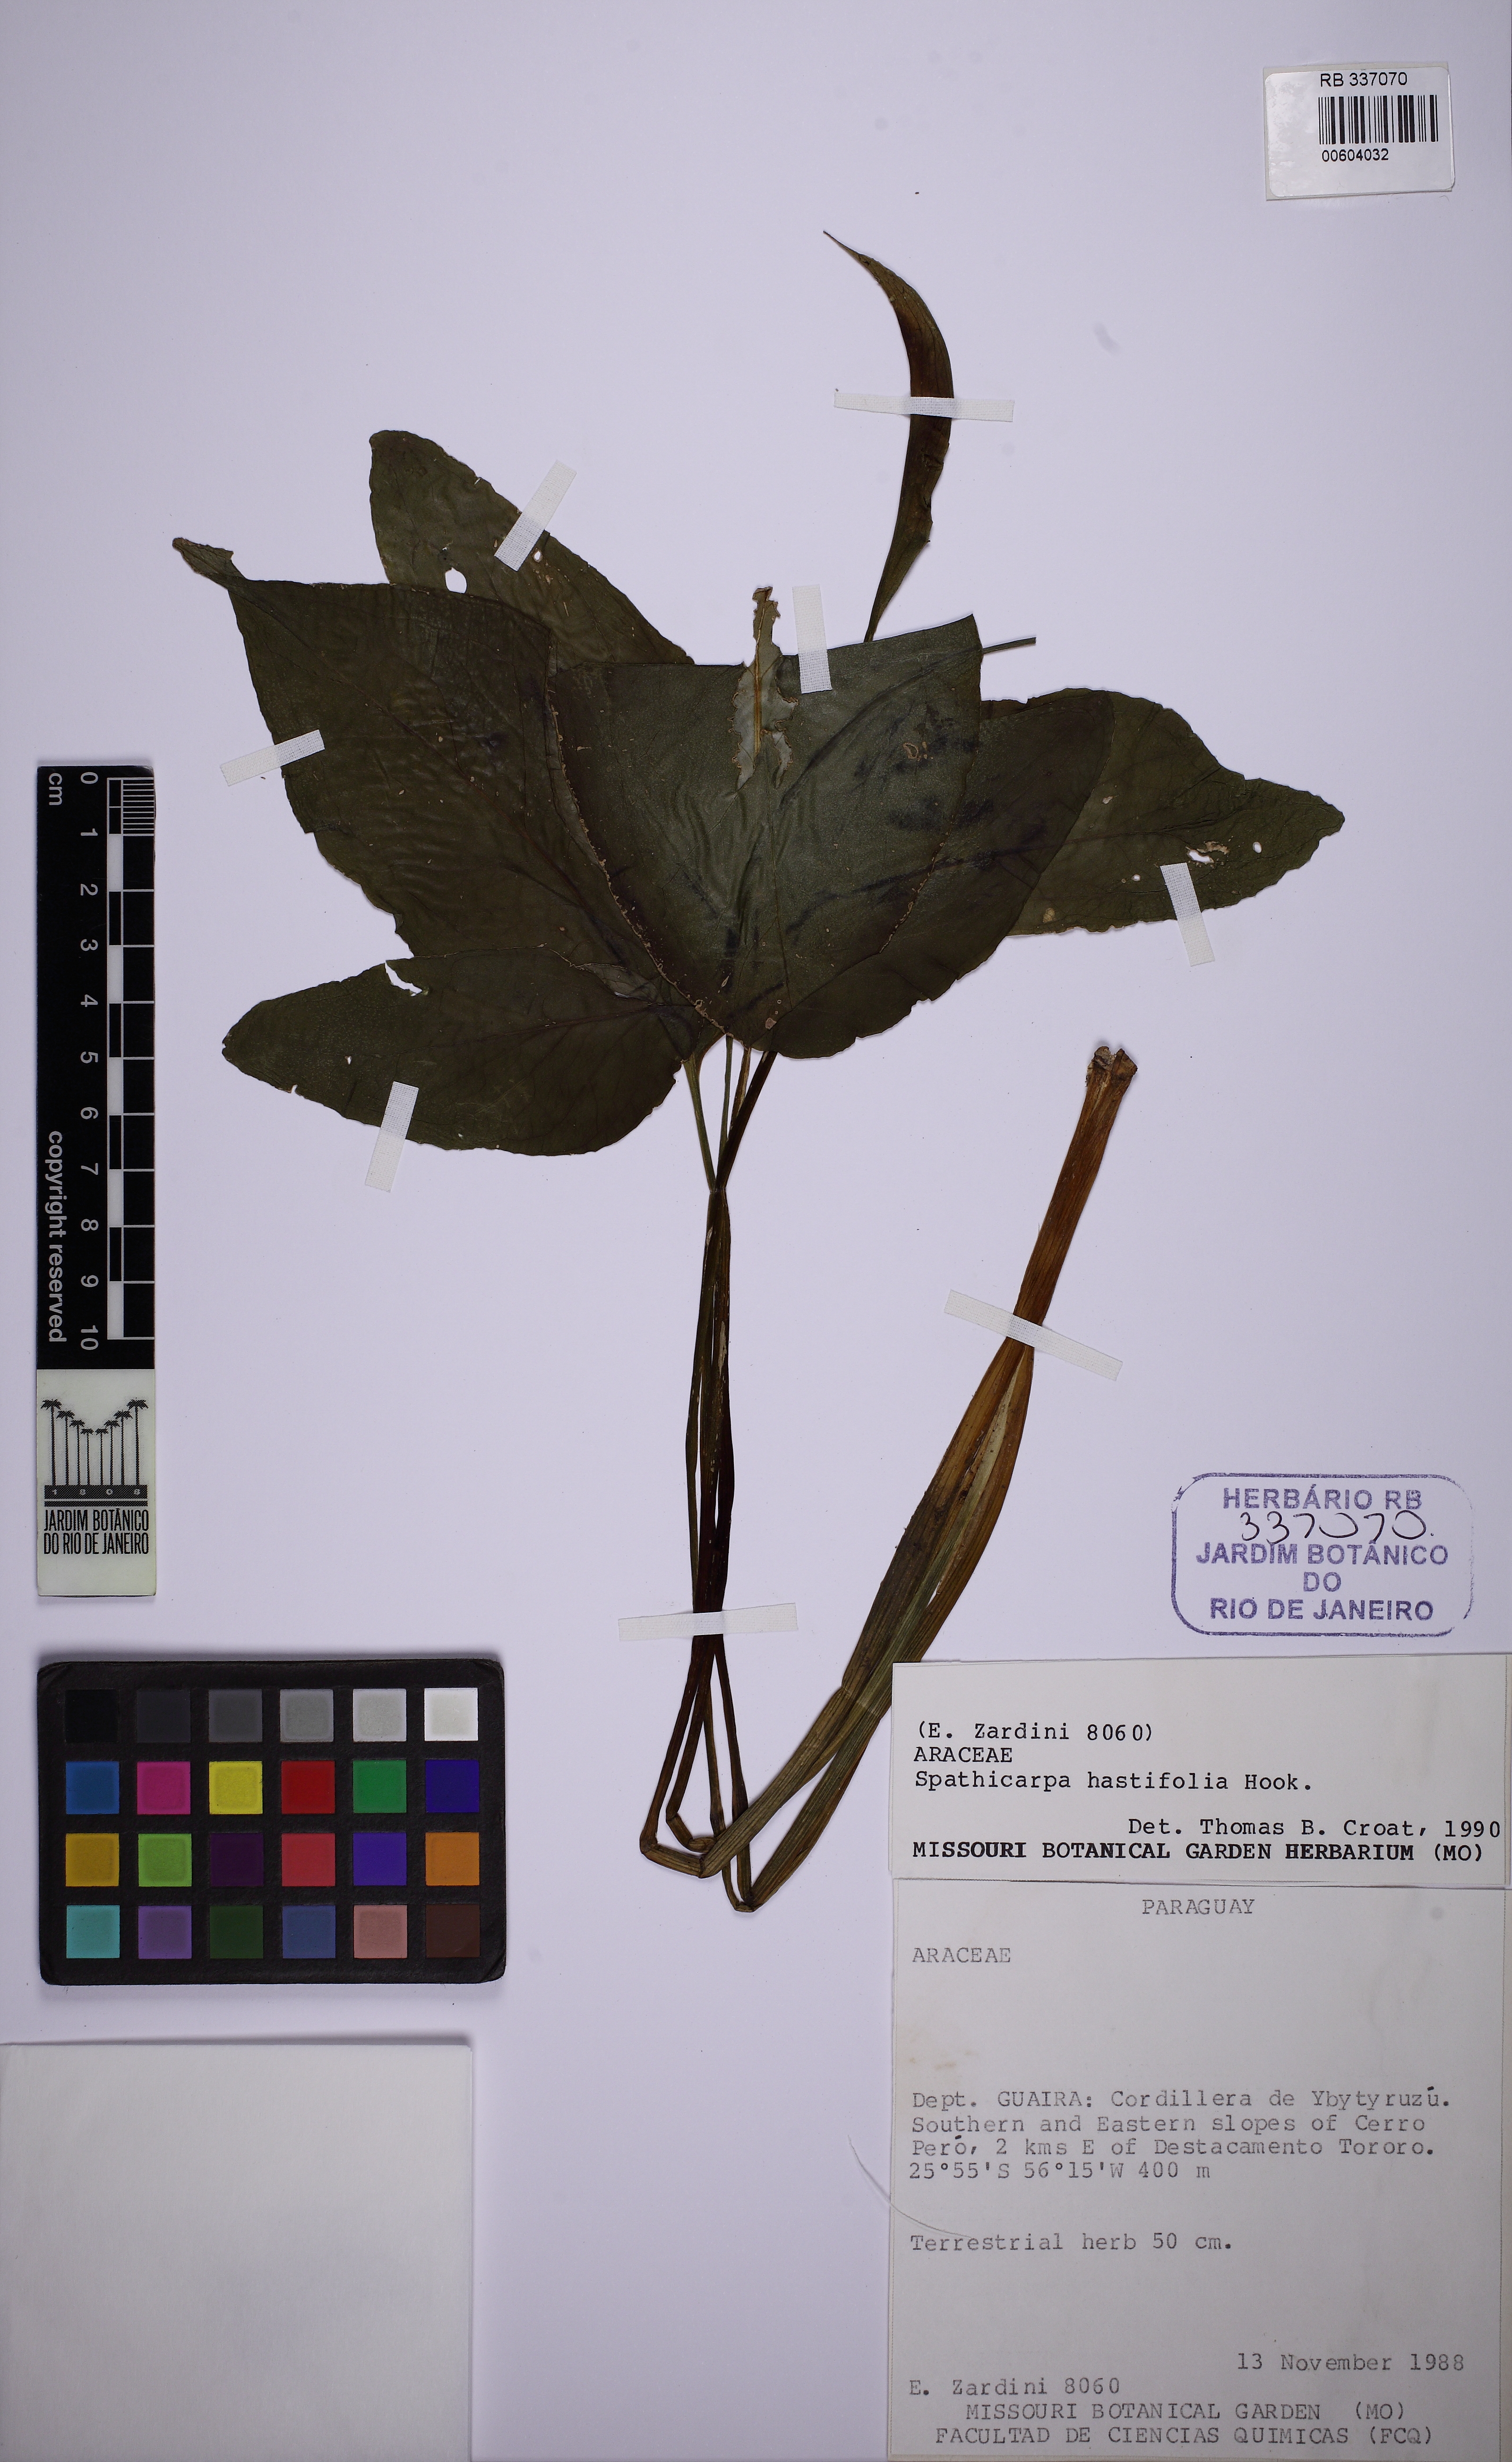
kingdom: Plantae
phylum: Tracheophyta
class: Liliopsida
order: Alismatales
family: Araceae
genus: Spathicarpa
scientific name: Spathicarpa hastifolia
